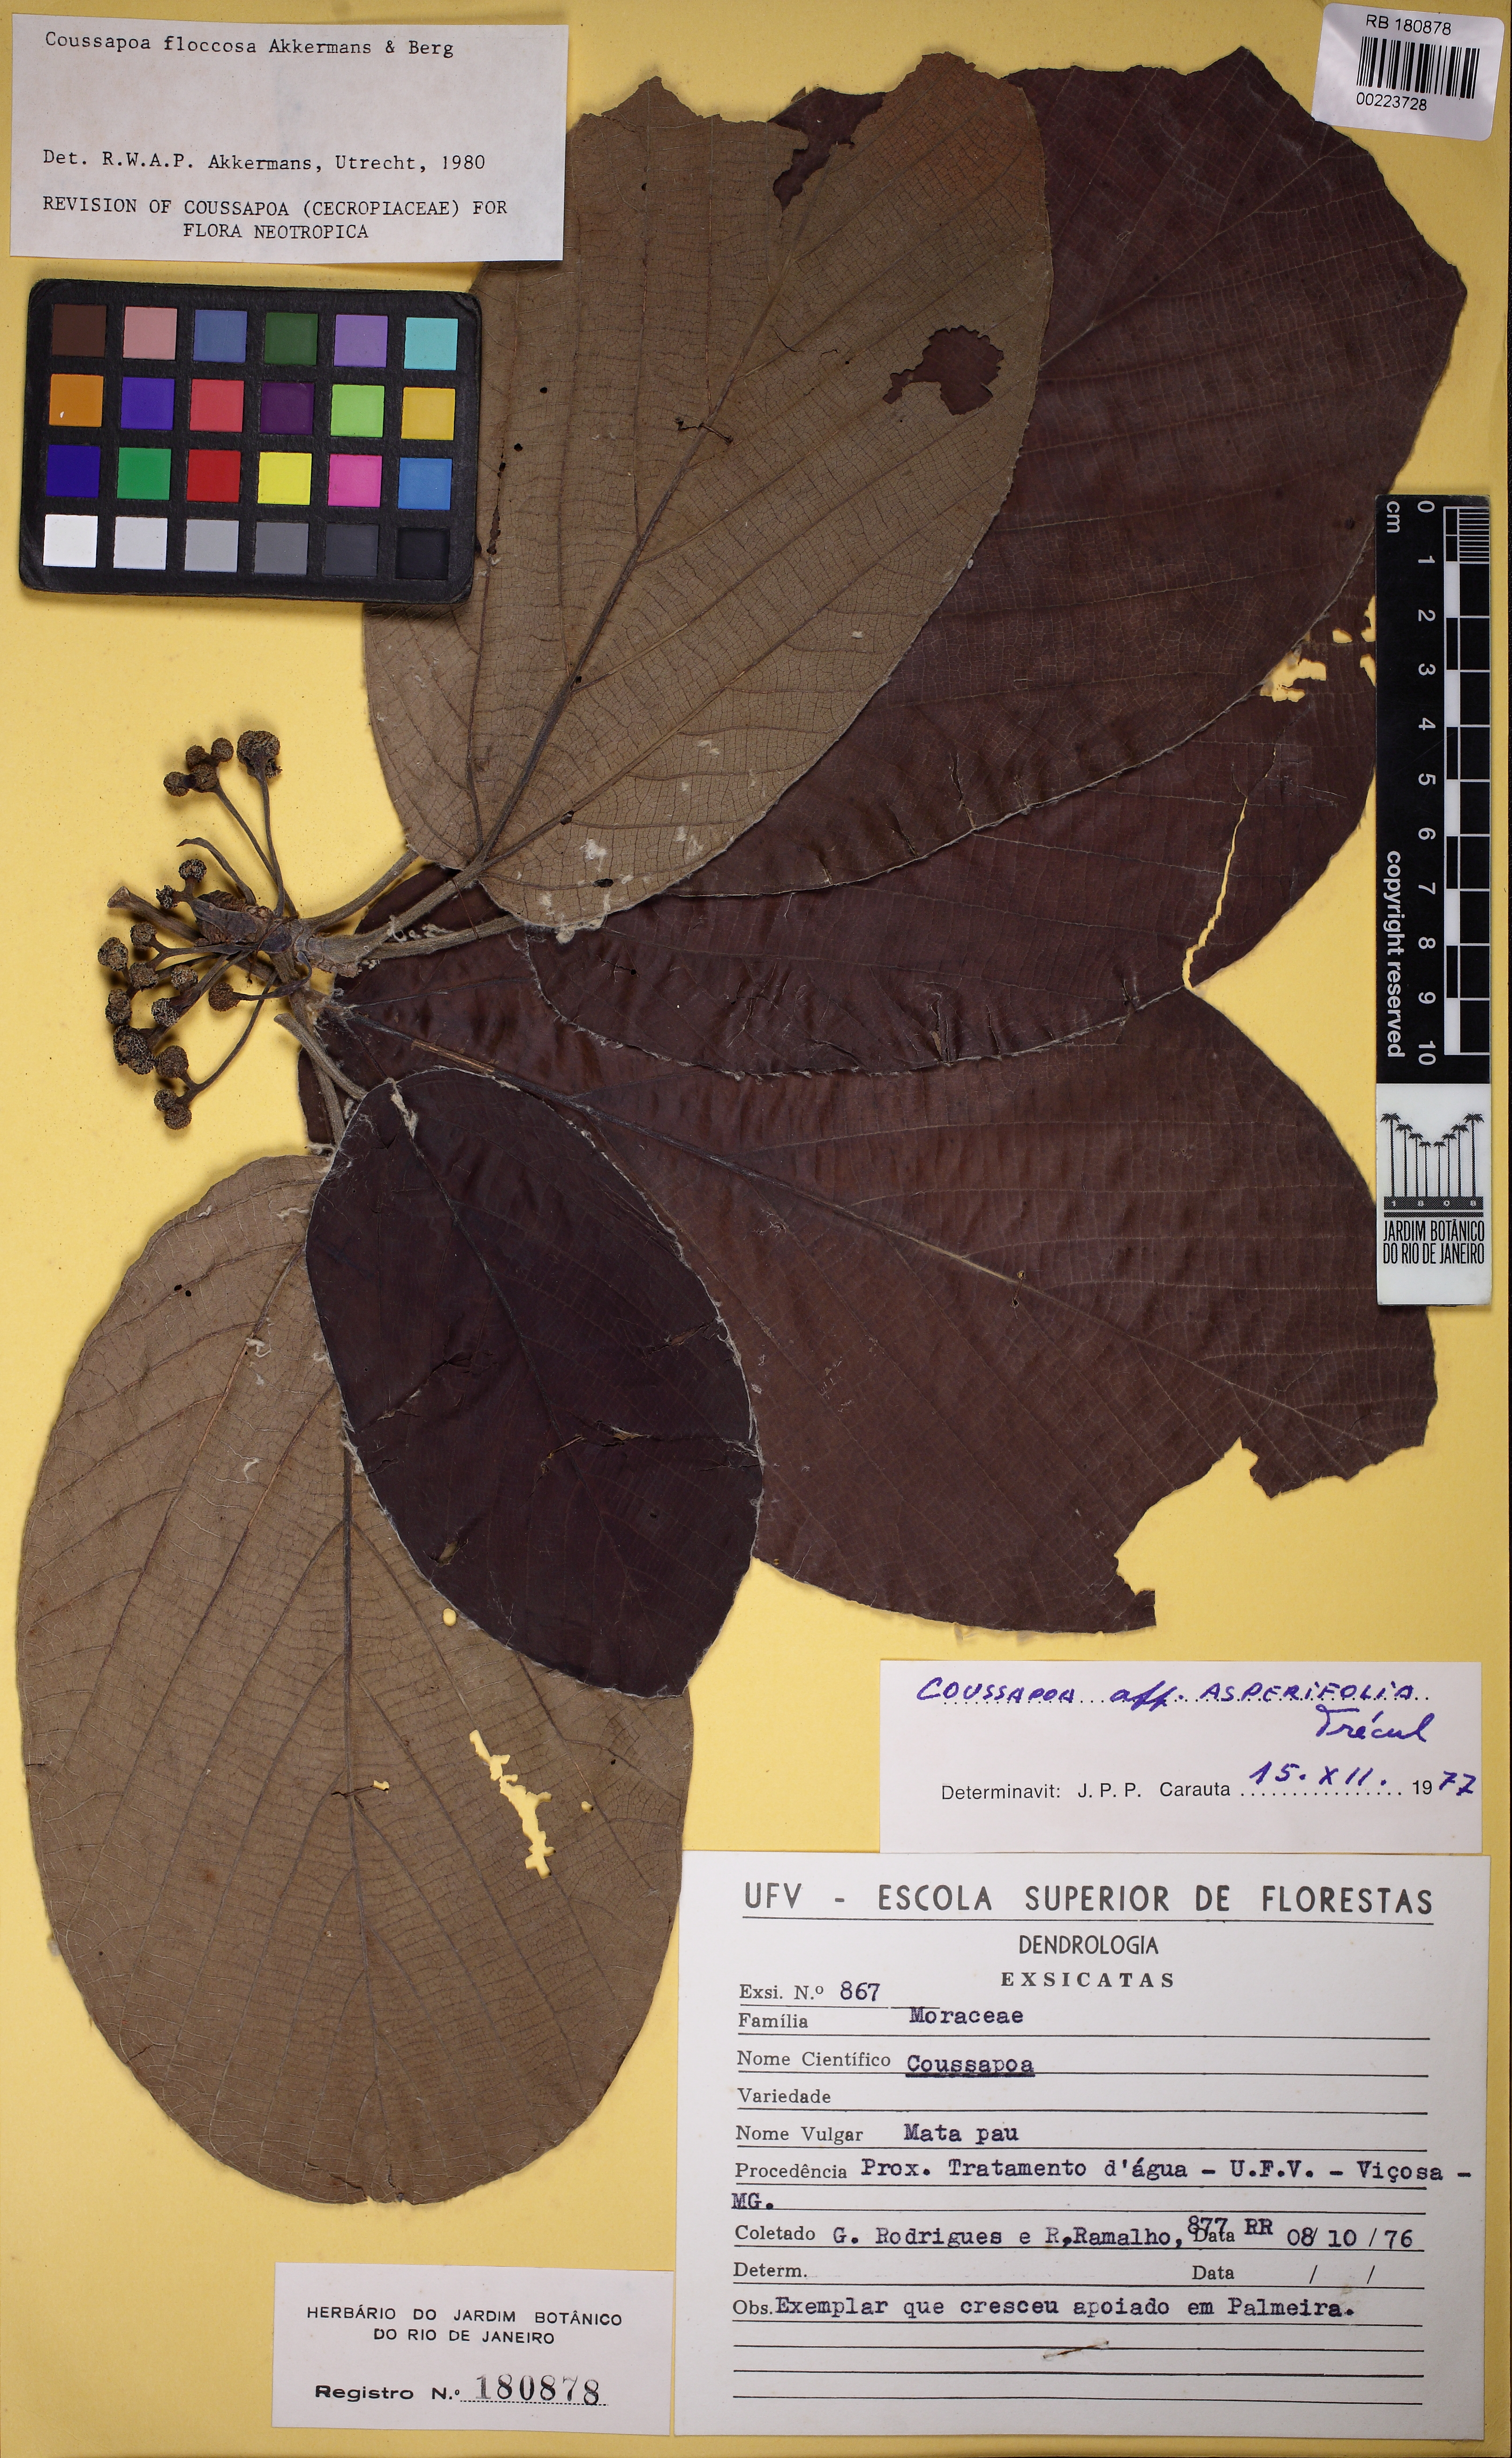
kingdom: Plantae
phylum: Tracheophyta
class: Magnoliopsida
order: Rosales
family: Urticaceae
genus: Coussapoa
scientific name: Coussapoa floccosa
